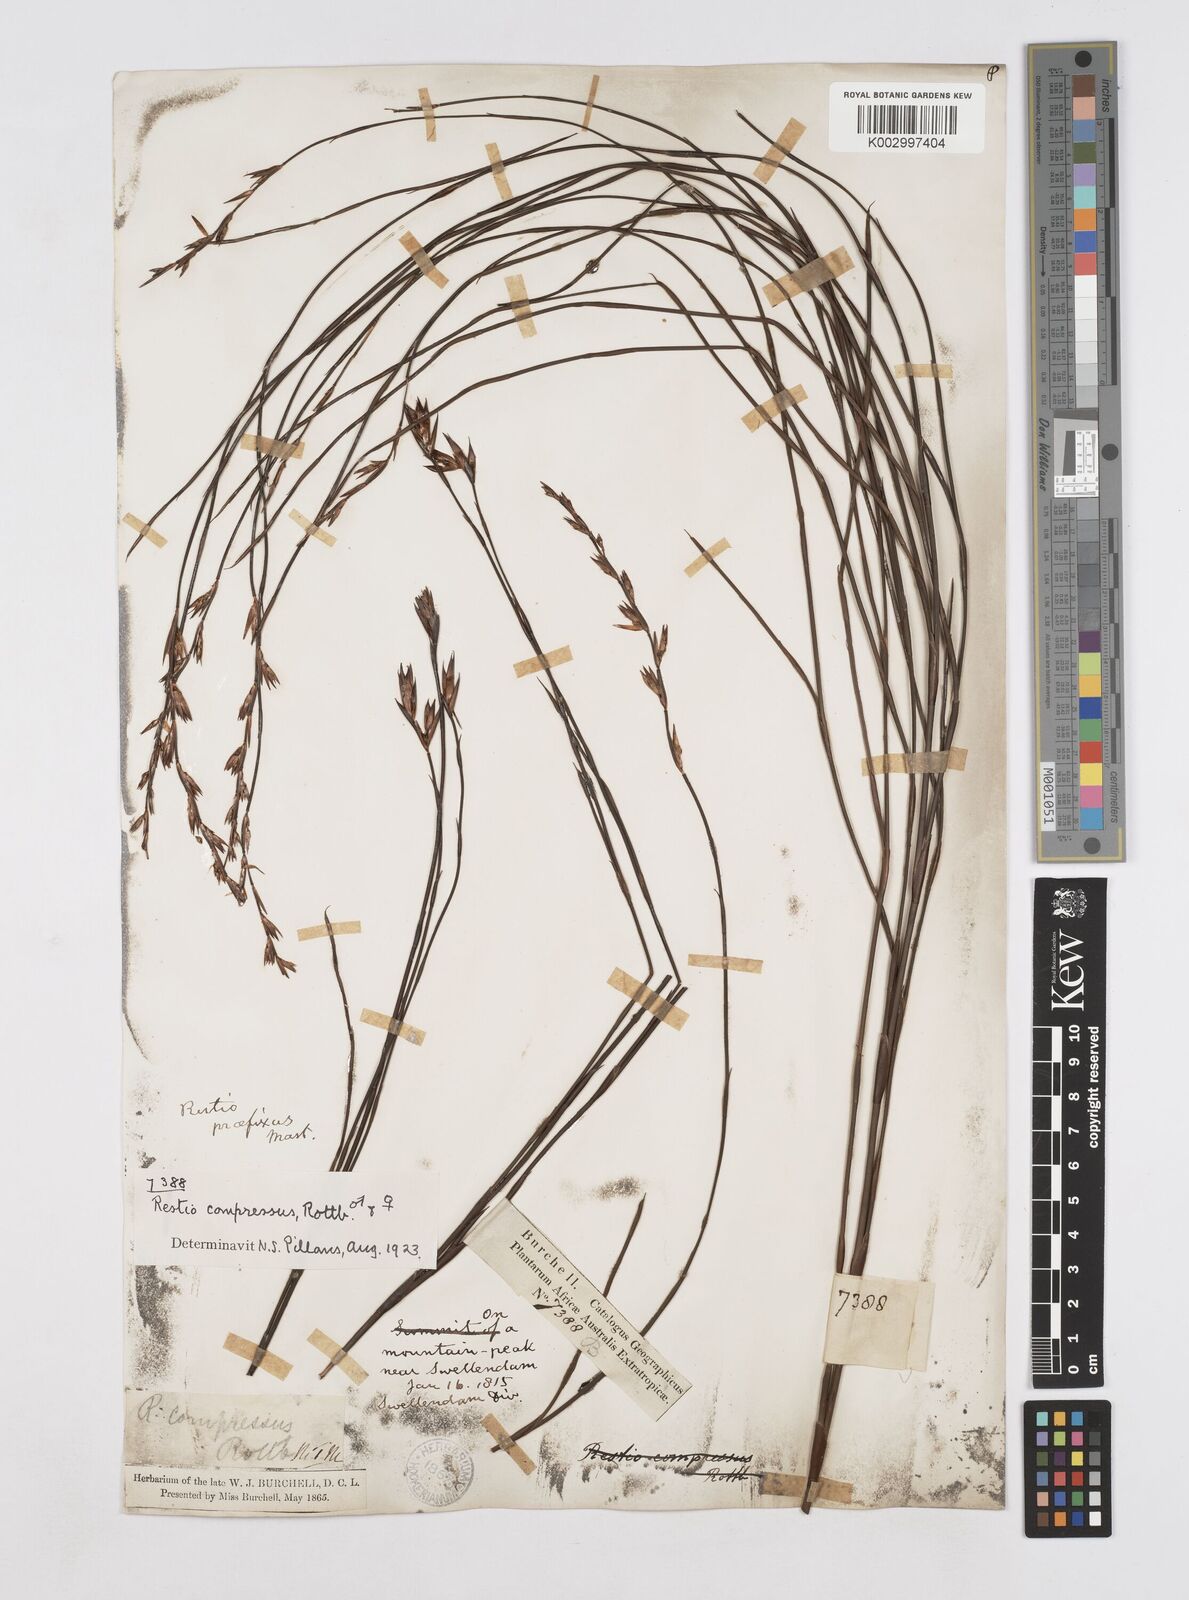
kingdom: Plantae
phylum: Tracheophyta
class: Liliopsida
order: Poales
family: Restionaceae
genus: Platycaulos
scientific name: Platycaulos compressus
